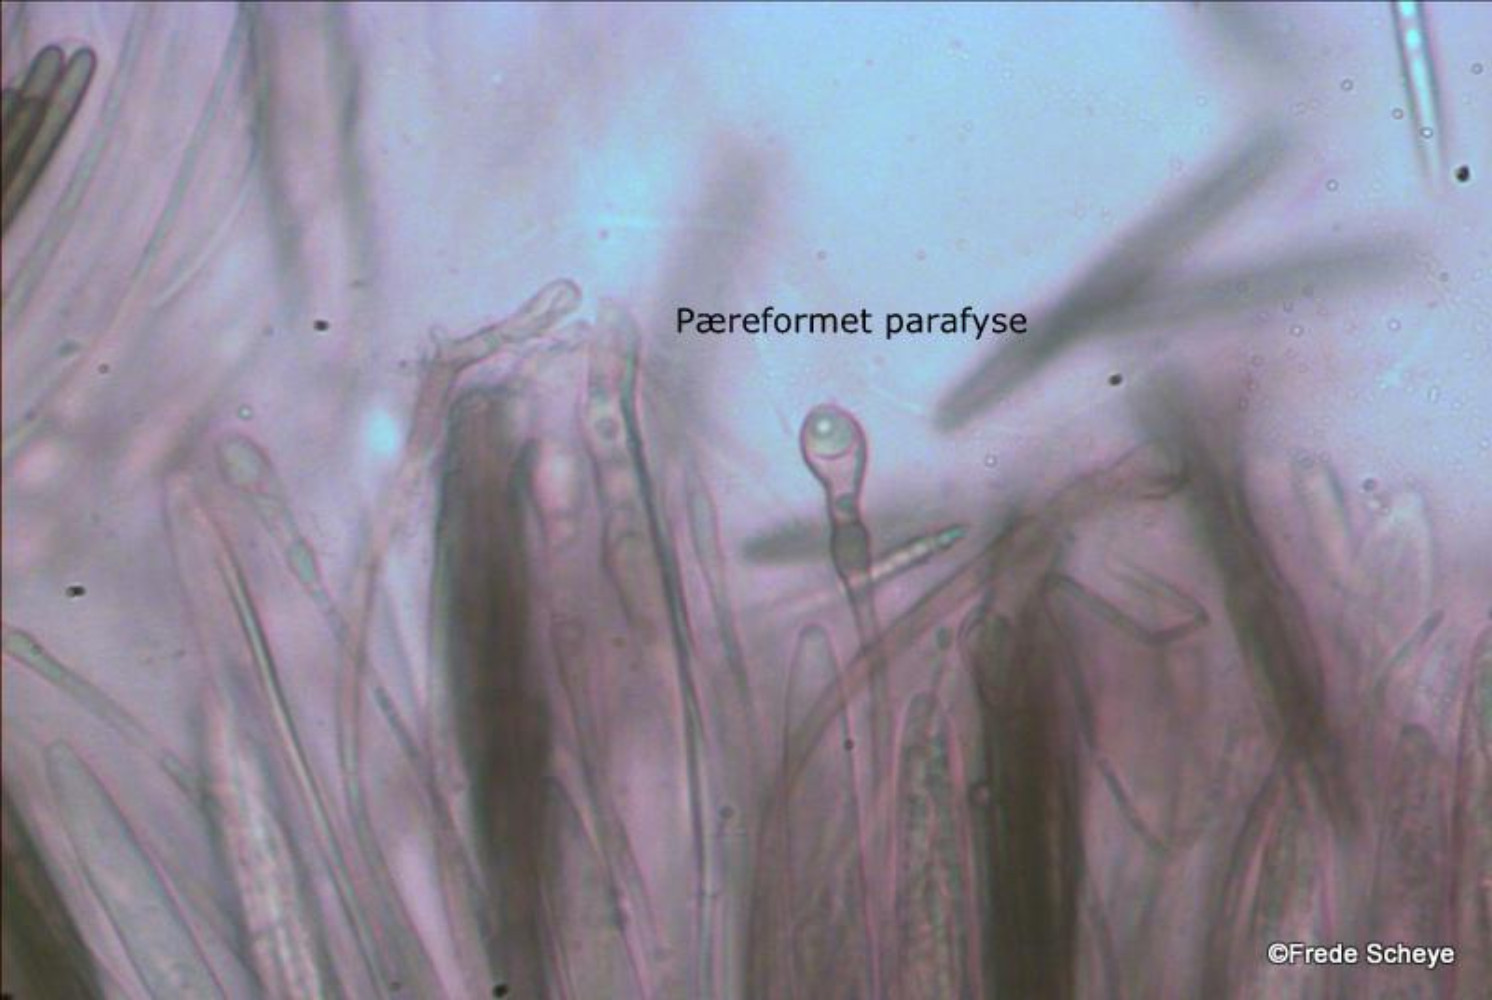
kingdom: Fungi
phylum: Ascomycota
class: Geoglossomycetes
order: Geoglossales
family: Geoglossaceae
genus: Glutinoglossum
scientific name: Glutinoglossum glutinosum
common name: slimet jordtunge
